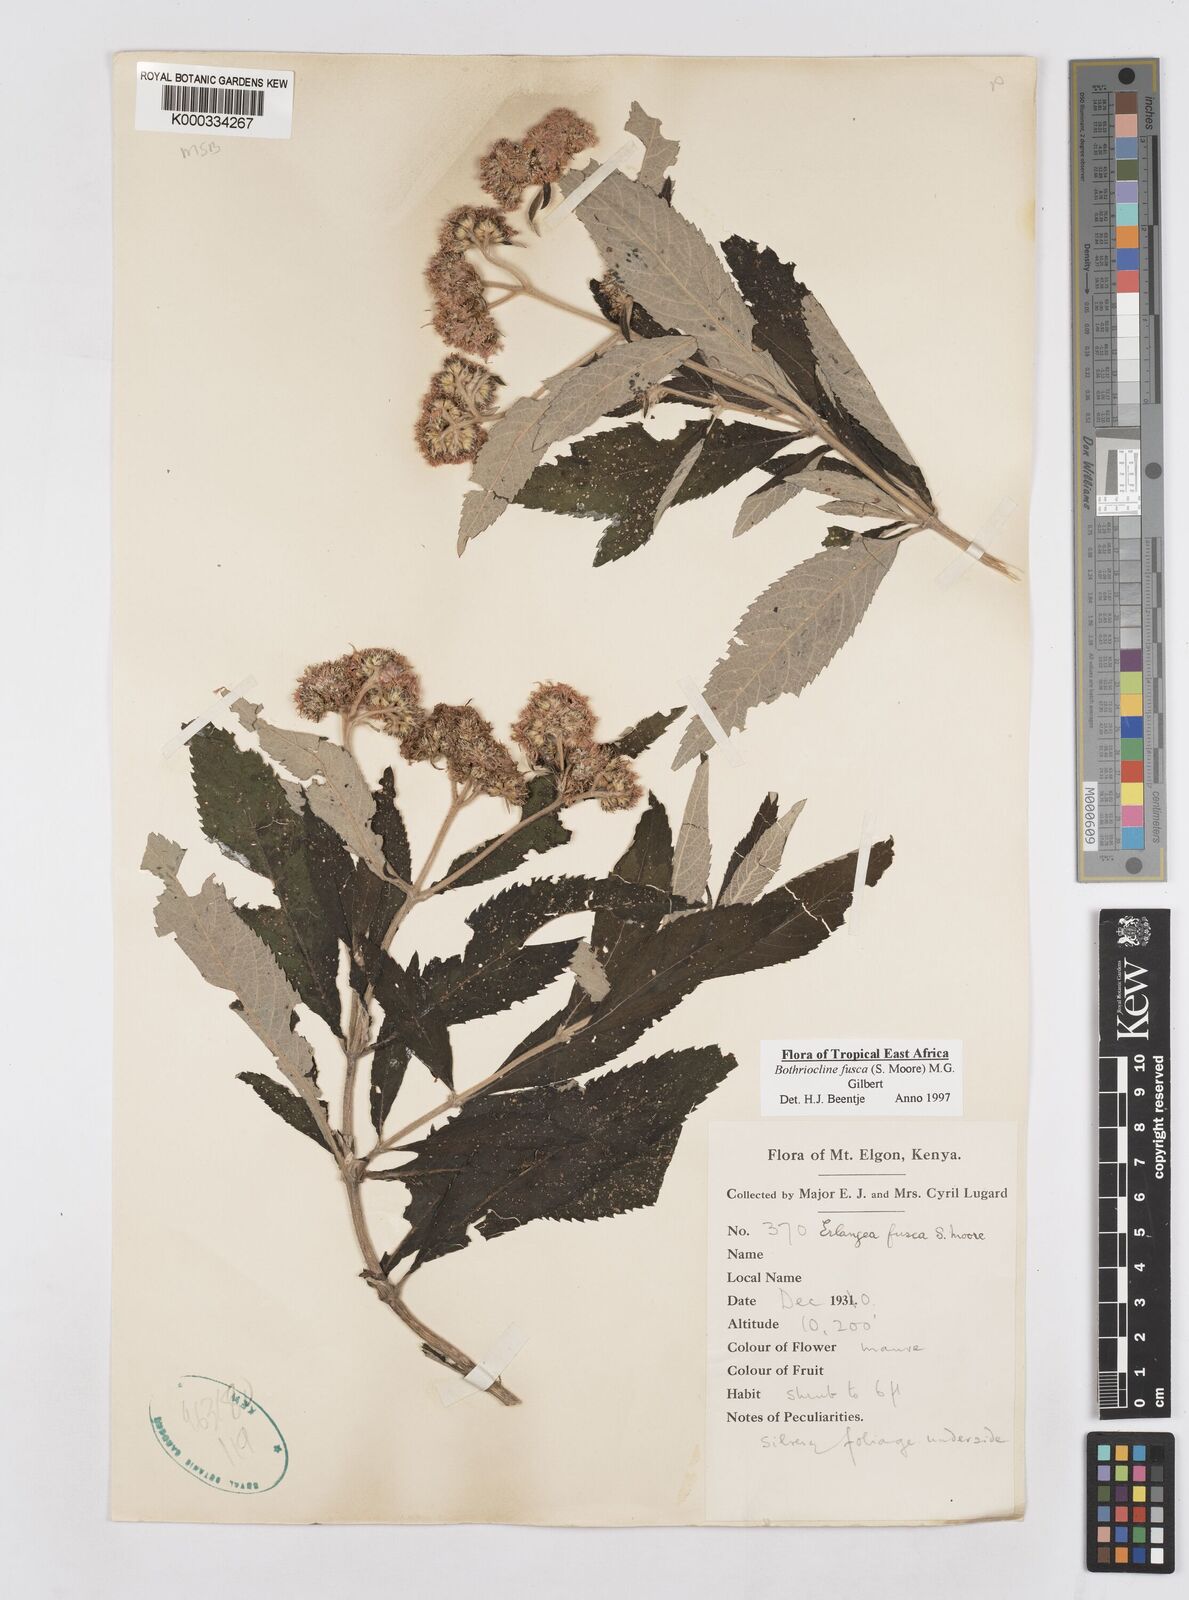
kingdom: Plantae
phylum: Tracheophyta
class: Magnoliopsida
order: Asterales
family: Asteraceae
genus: Bothriocline
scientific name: Bothriocline fusca
